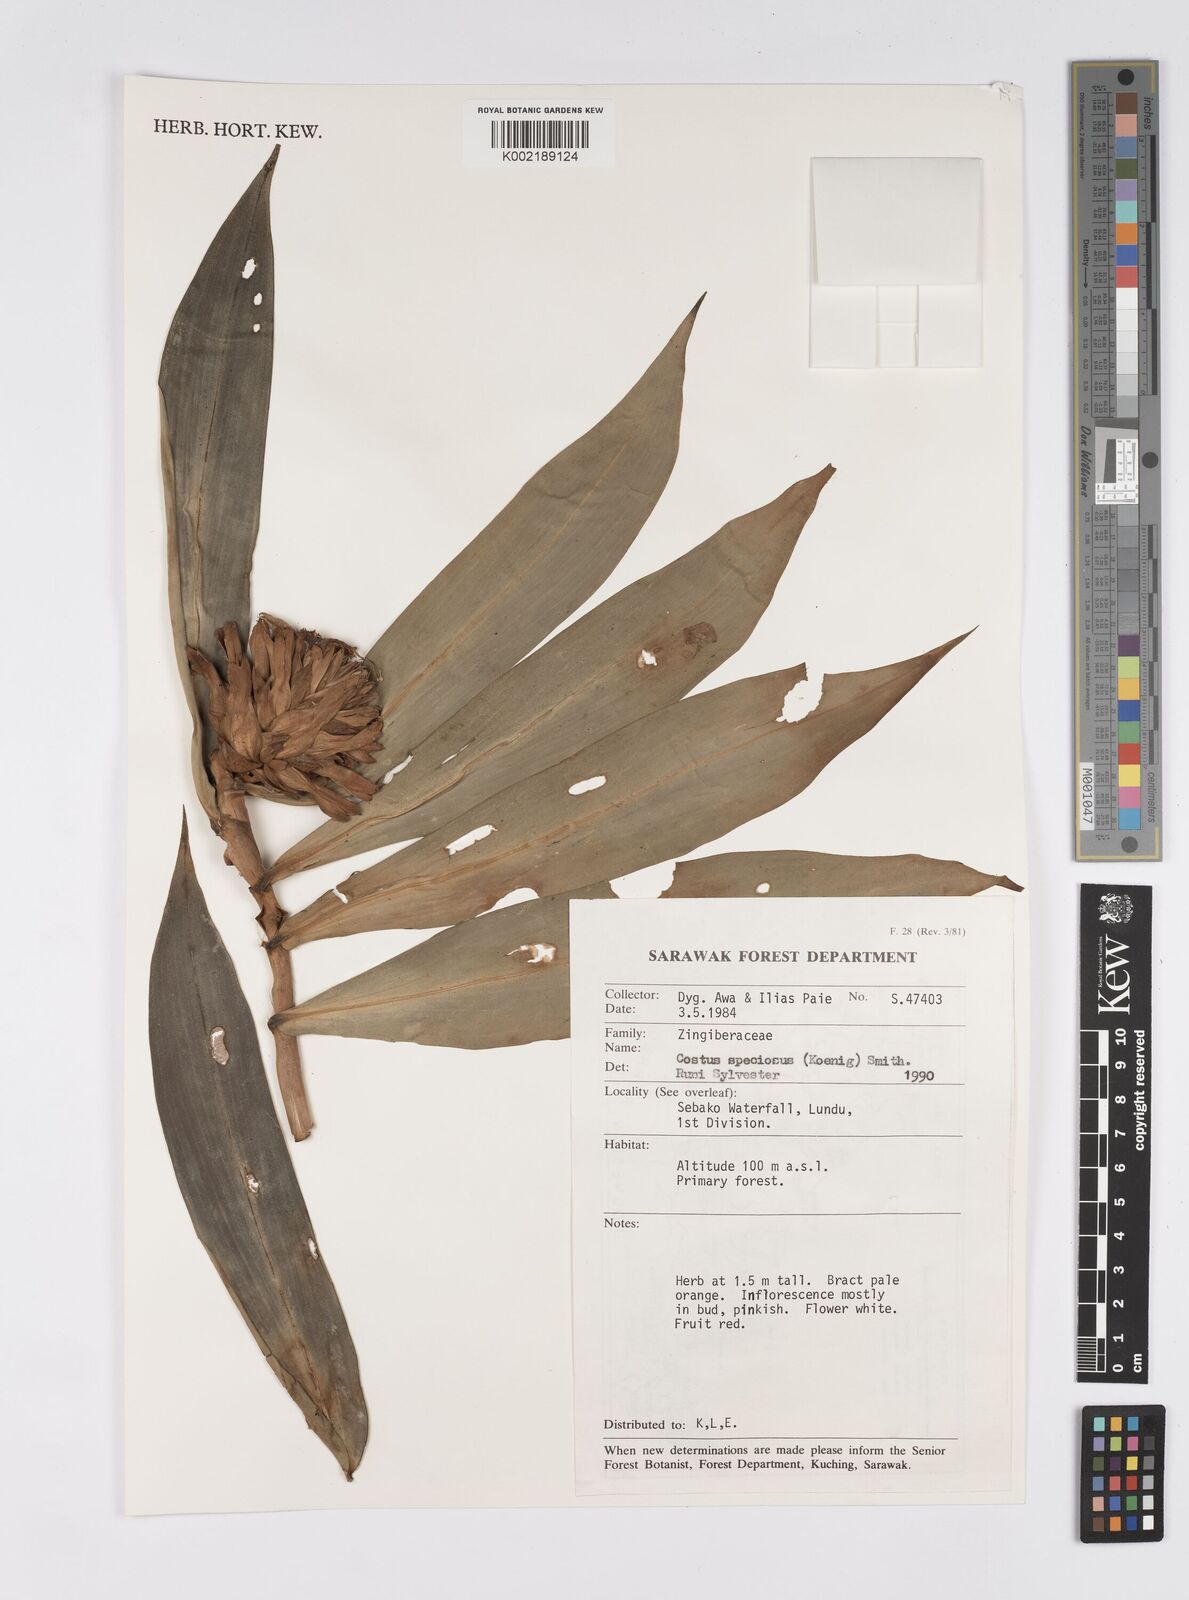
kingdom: Plantae
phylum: Tracheophyta
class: Liliopsida
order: Zingiberales
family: Costaceae
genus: Hellenia
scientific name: Hellenia speciosa
